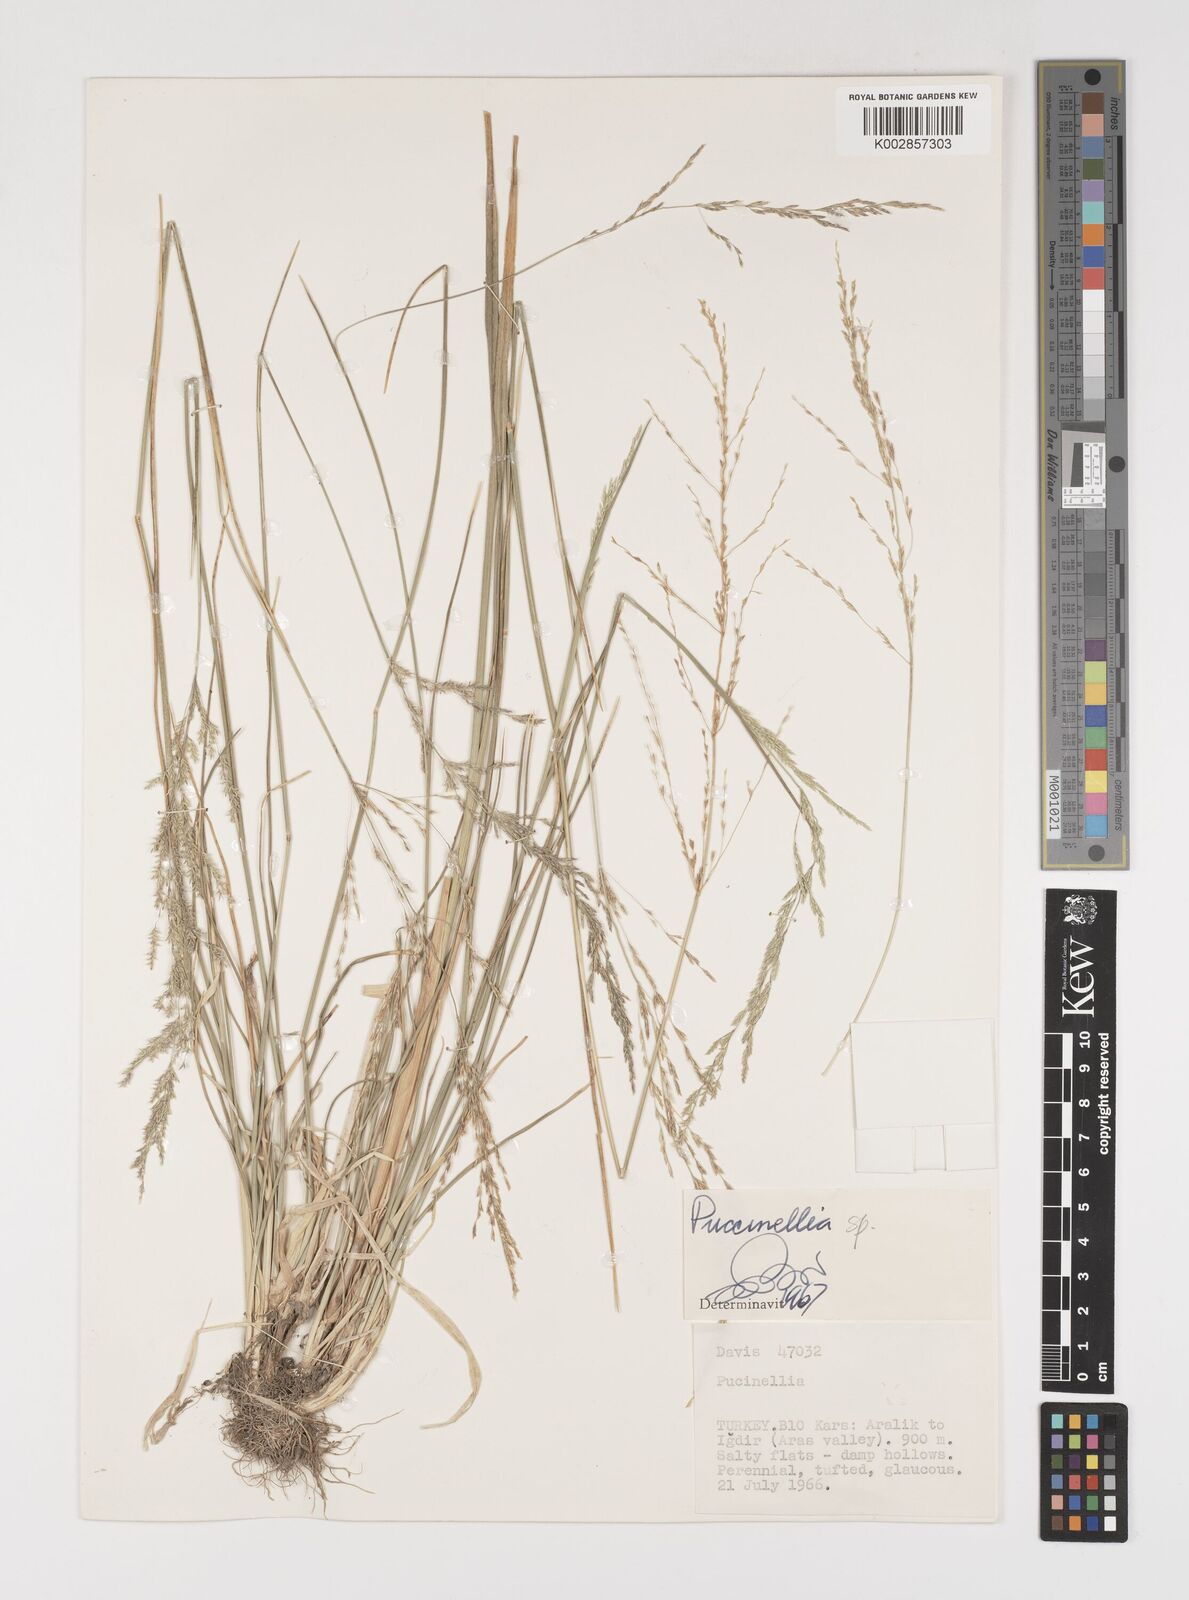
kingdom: Plantae
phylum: Tracheophyta
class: Liliopsida
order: Poales
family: Poaceae
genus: Puccinellia
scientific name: Puccinellia
